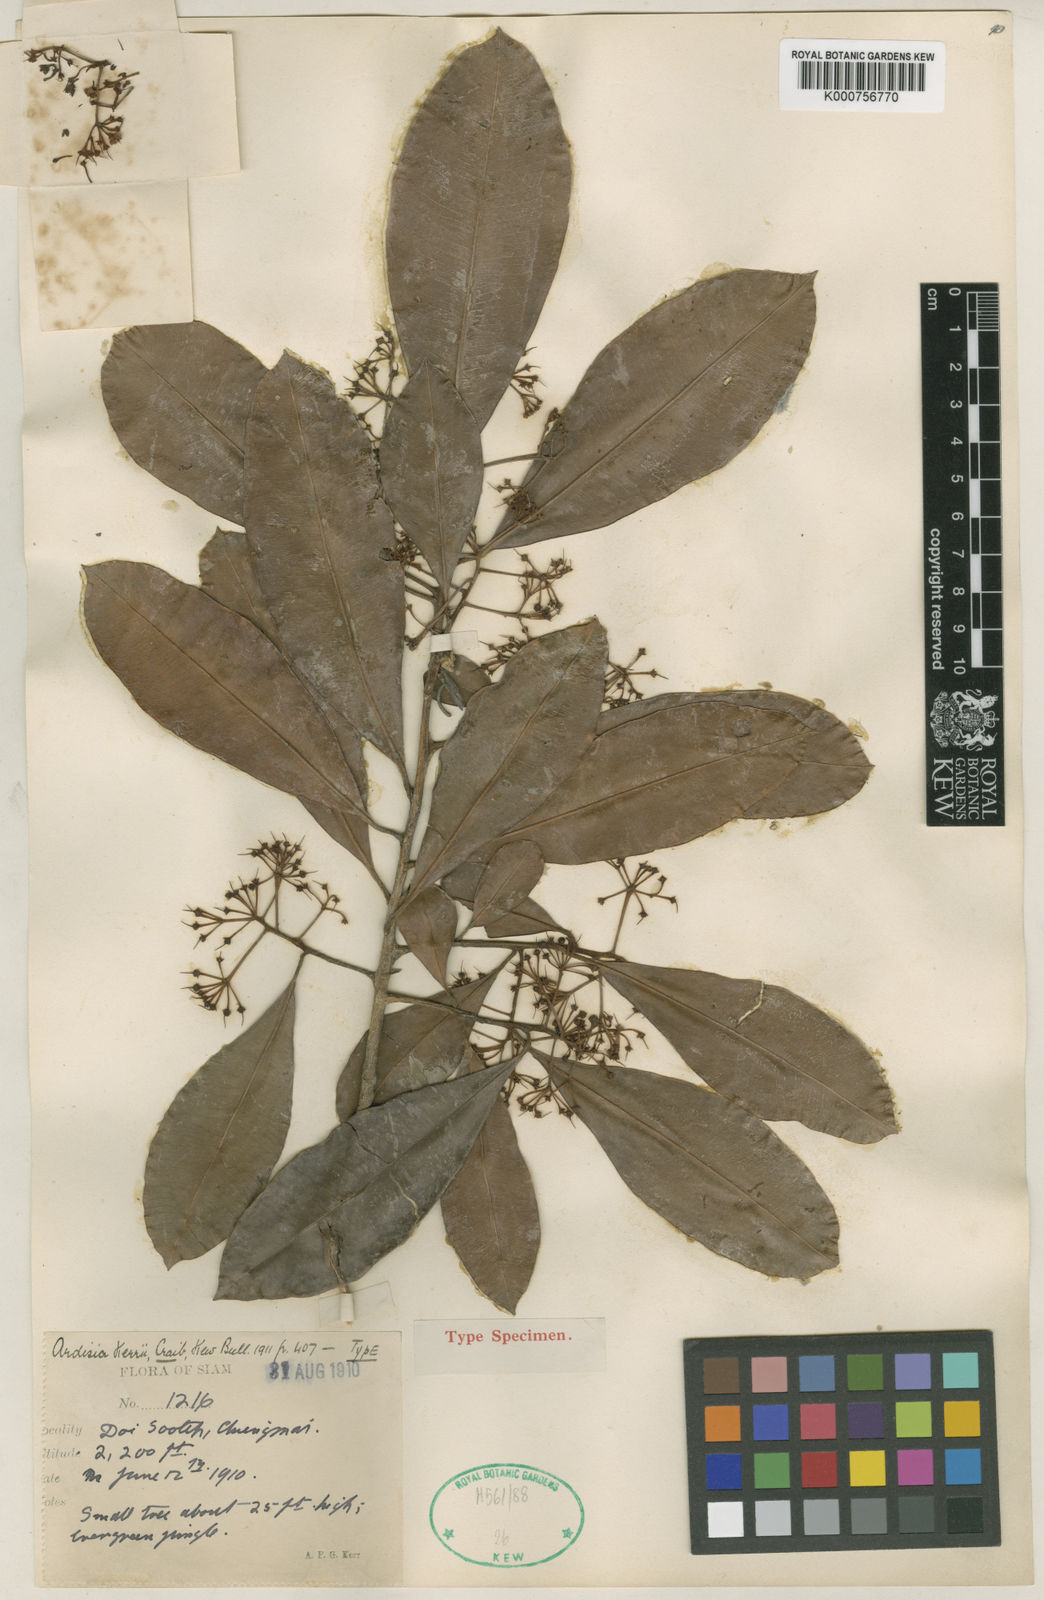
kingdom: Plantae
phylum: Tracheophyta
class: Magnoliopsida
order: Ericales
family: Primulaceae
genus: Ardisia
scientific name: Ardisia kerrii
